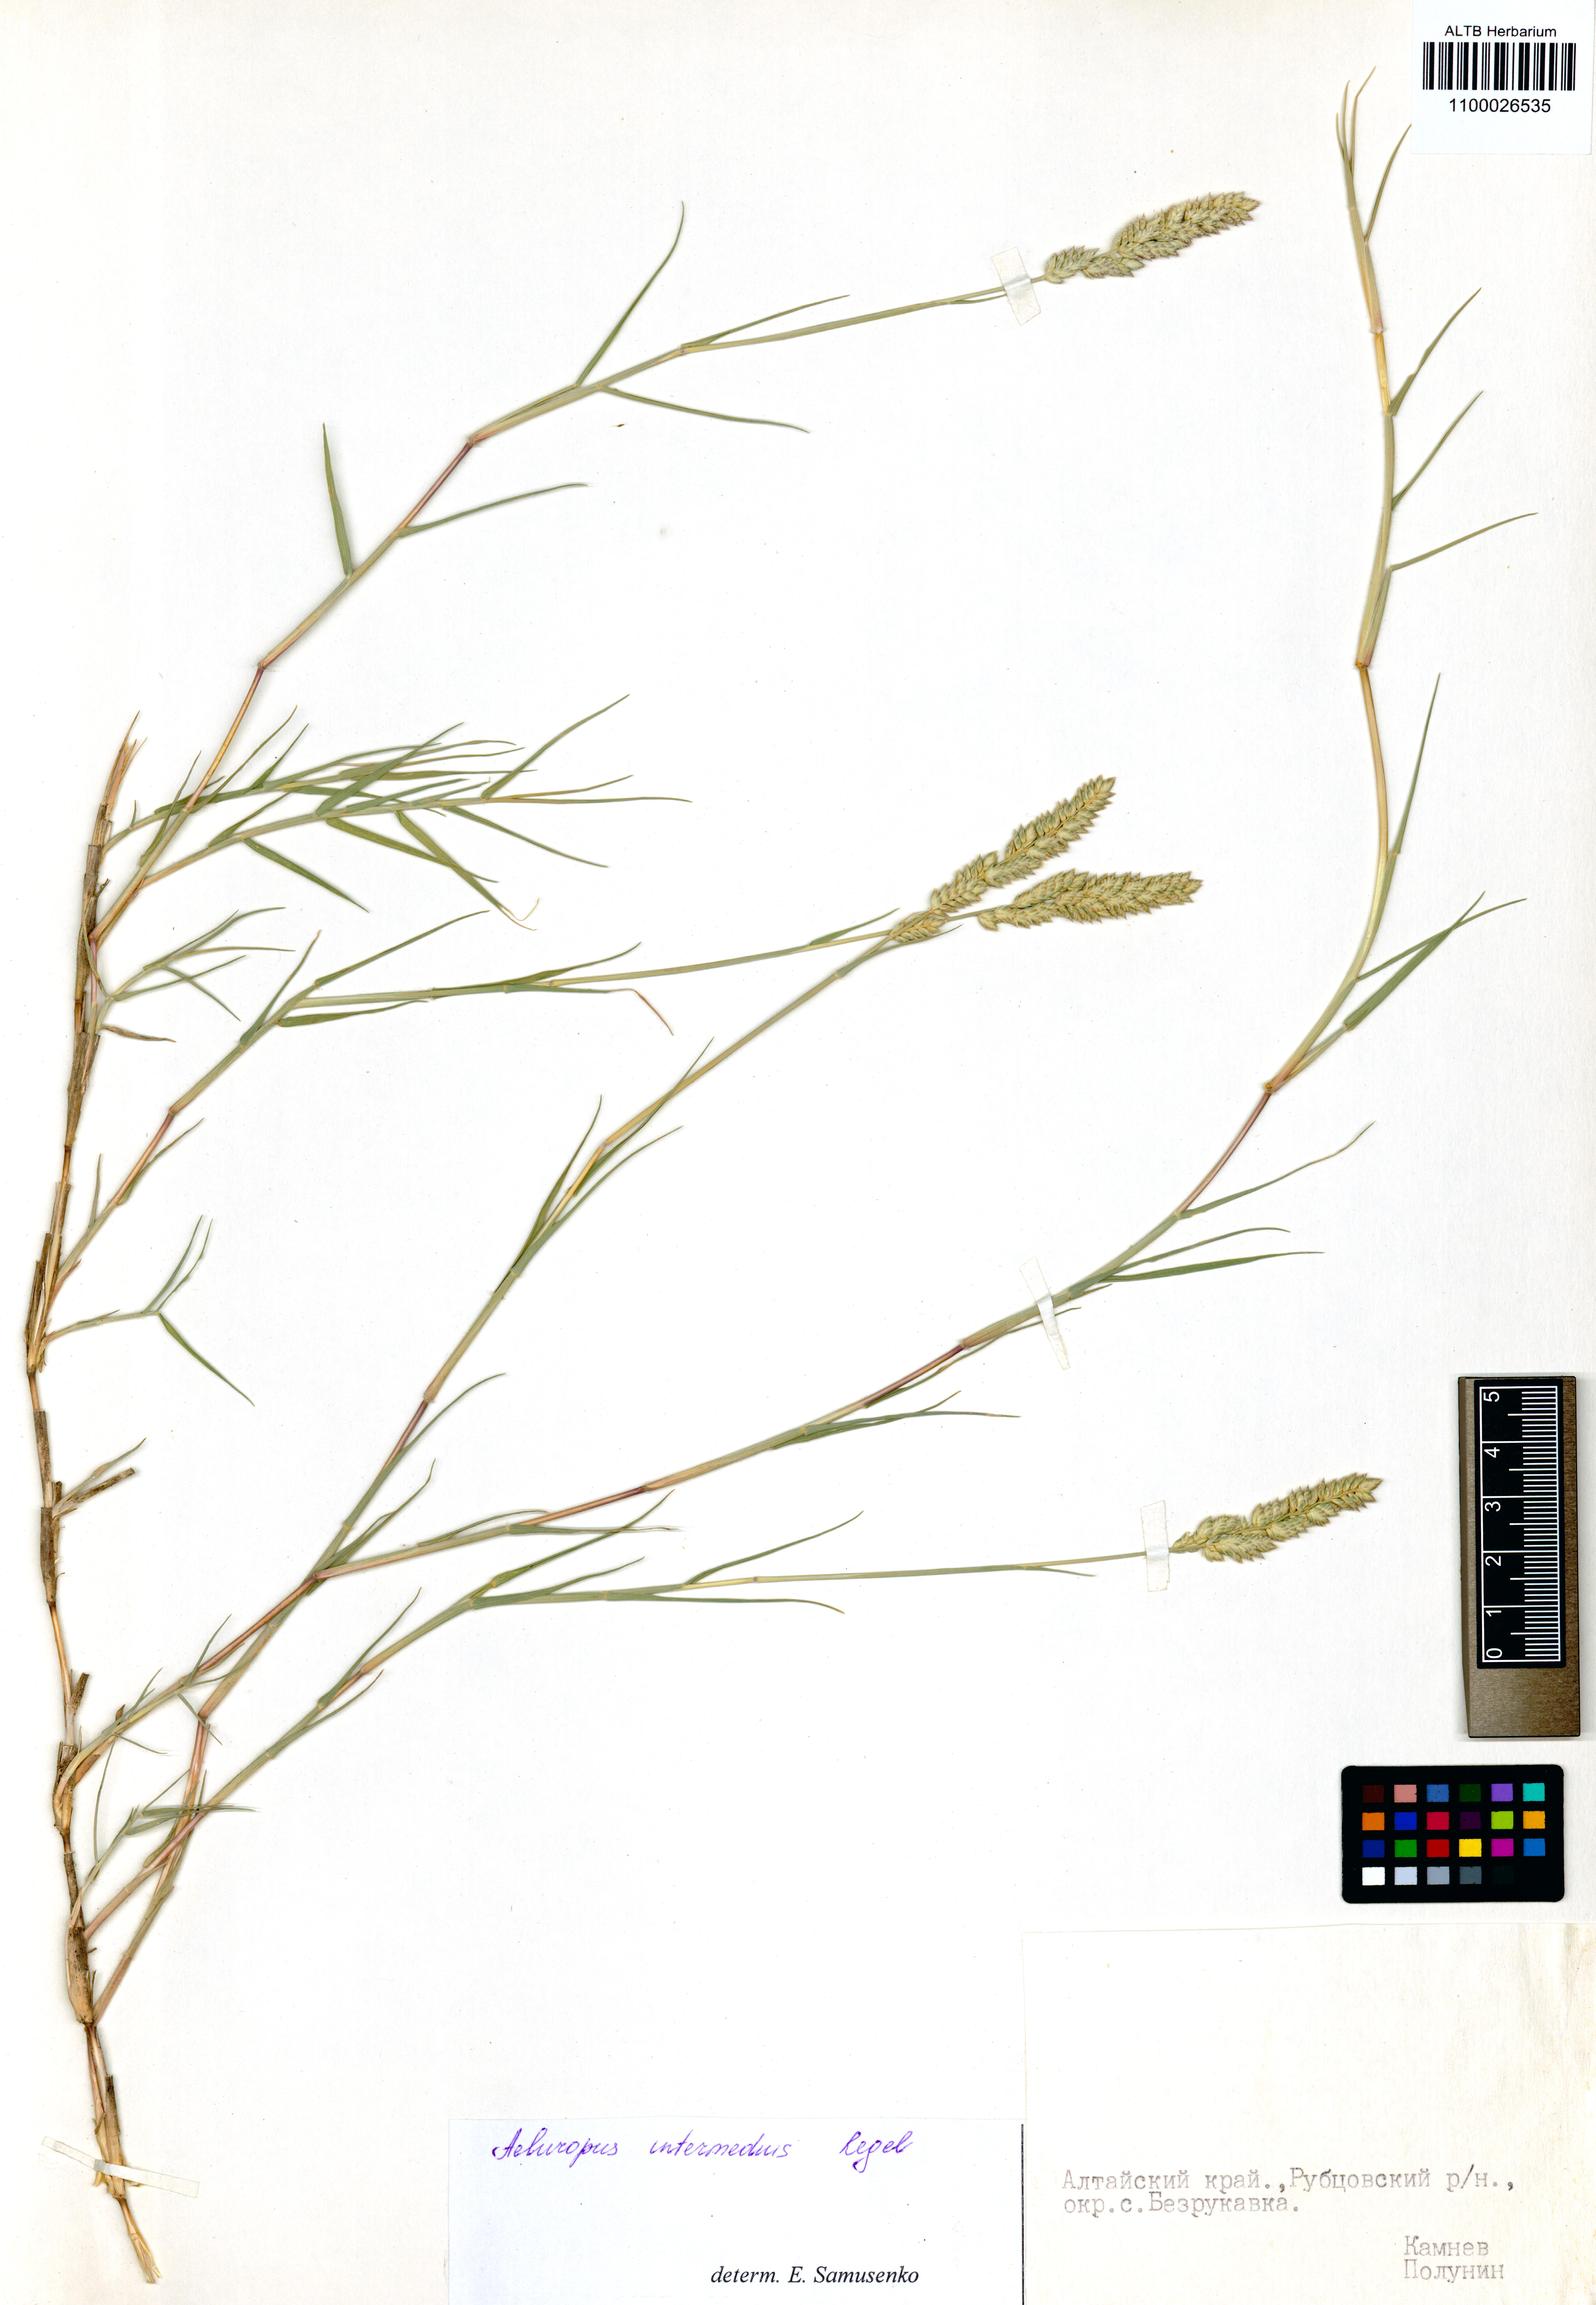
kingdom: Plantae
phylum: Tracheophyta
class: Liliopsida
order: Poales
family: Poaceae
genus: Aeluropus
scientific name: Aeluropus littoralis
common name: Indian walnut
